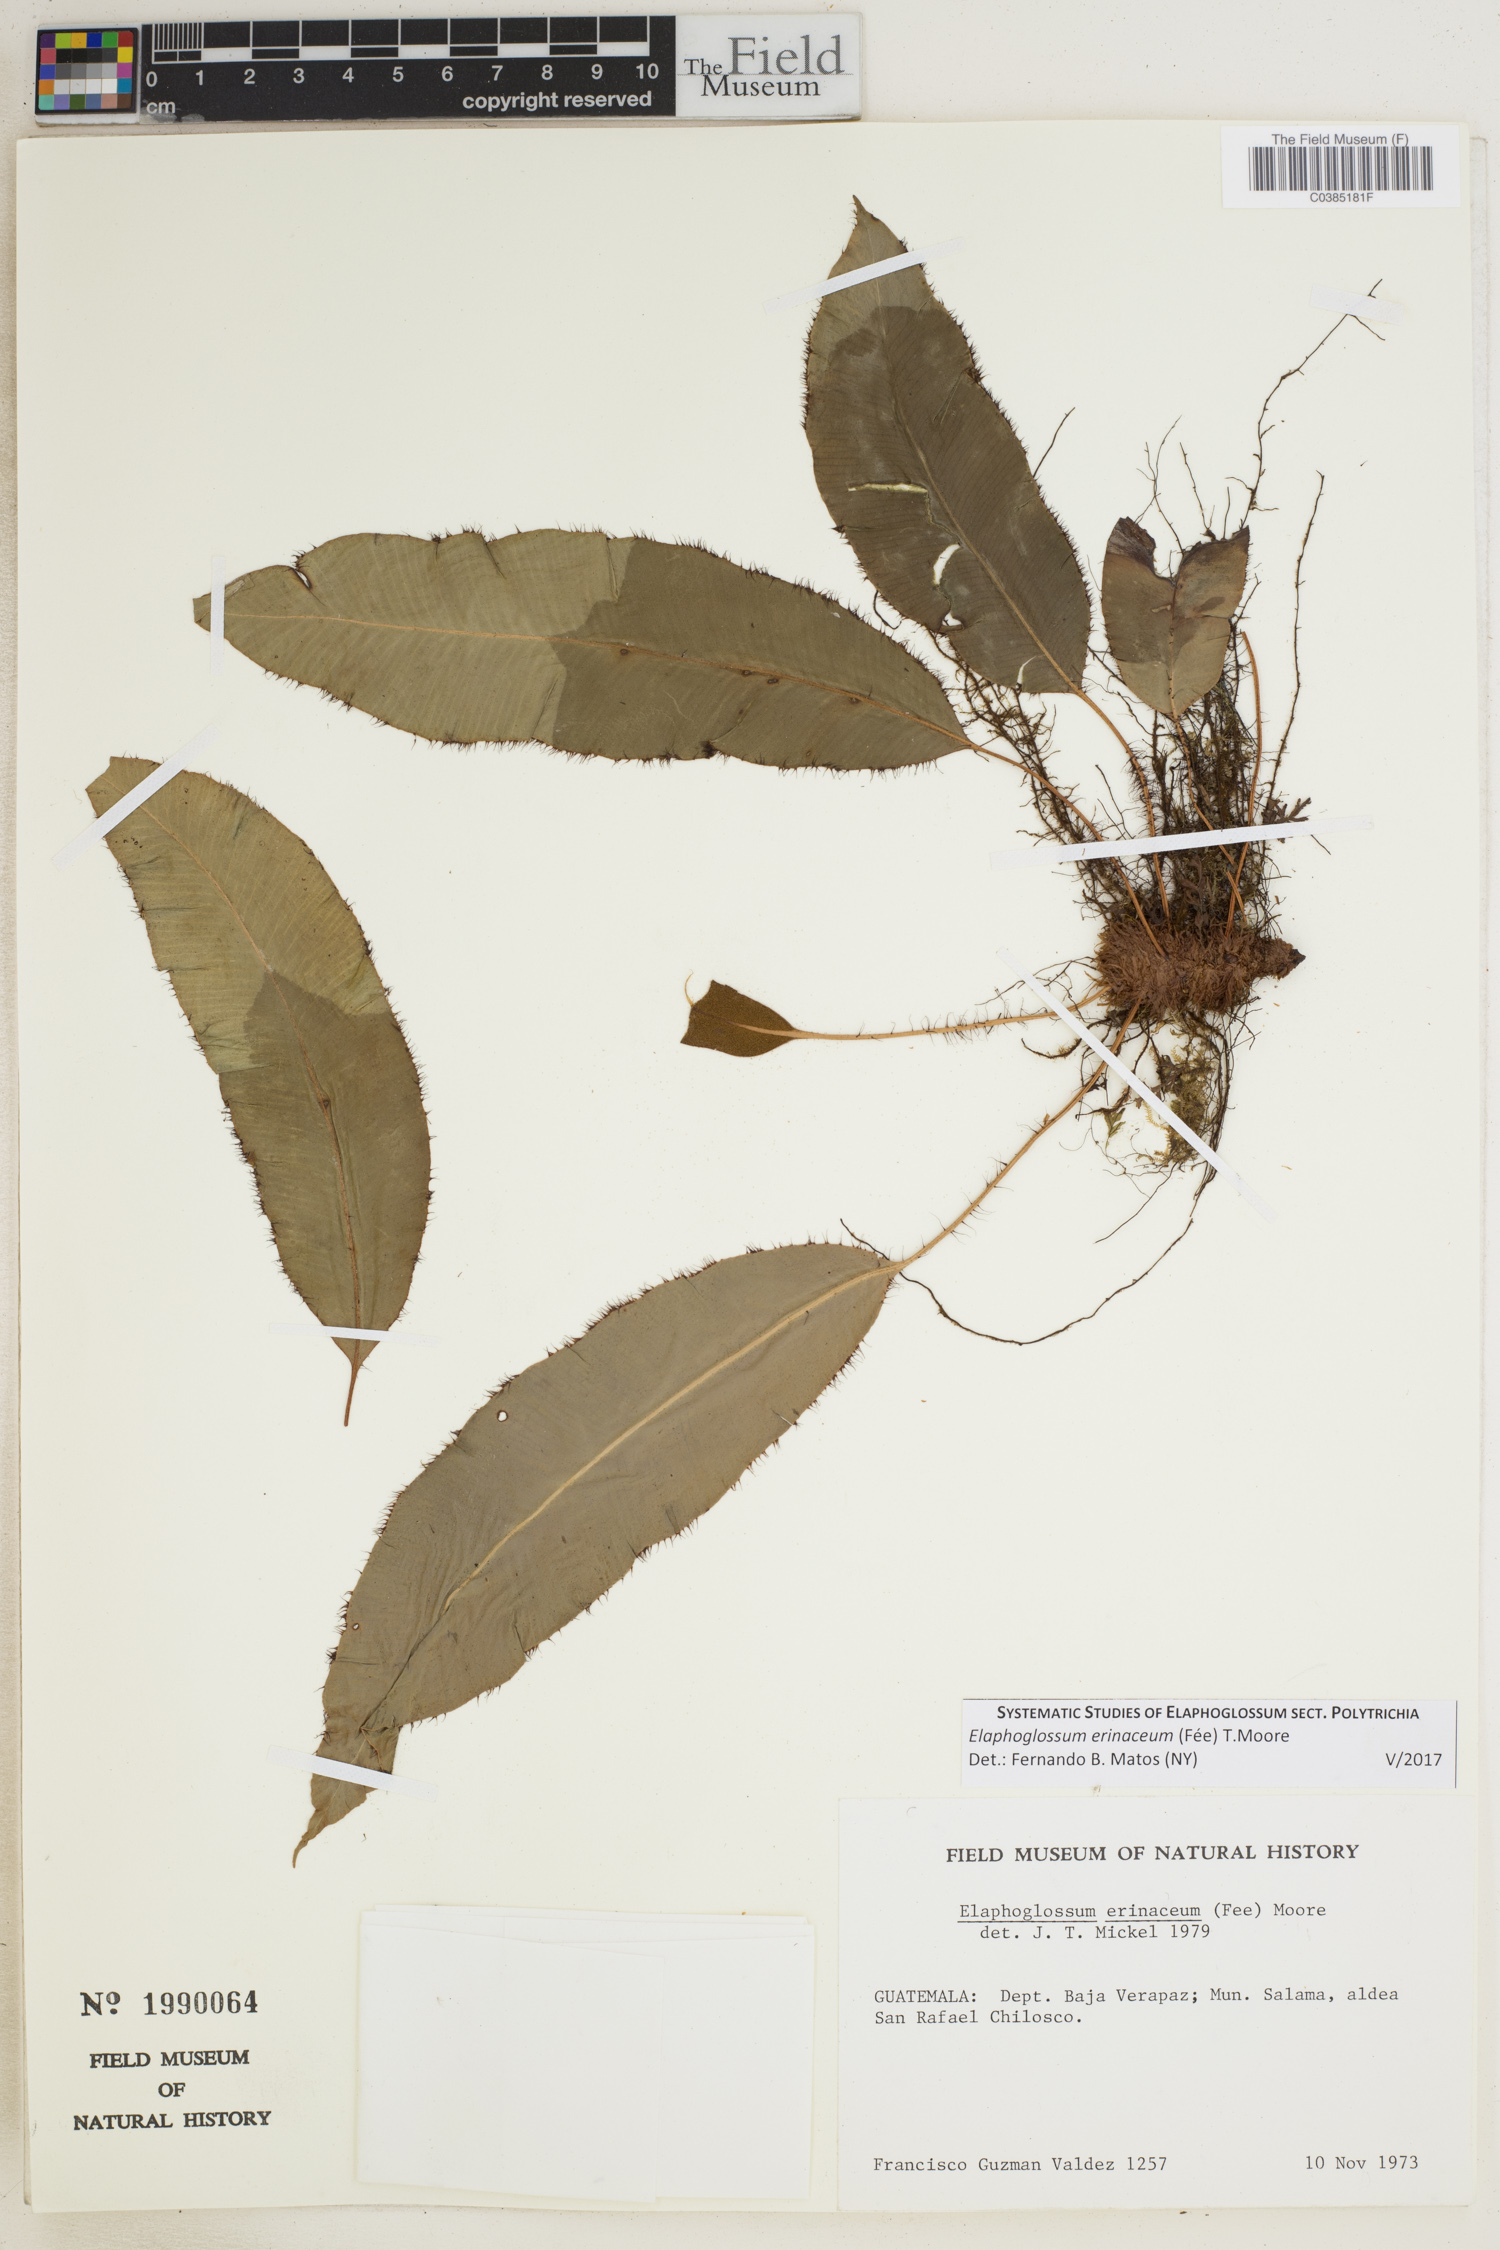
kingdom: Plantae
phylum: Tracheophyta
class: Polypodiopsida
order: Polypodiales
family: Dryopteridaceae
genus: Elaphoglossum
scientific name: Elaphoglossum erinaceum
